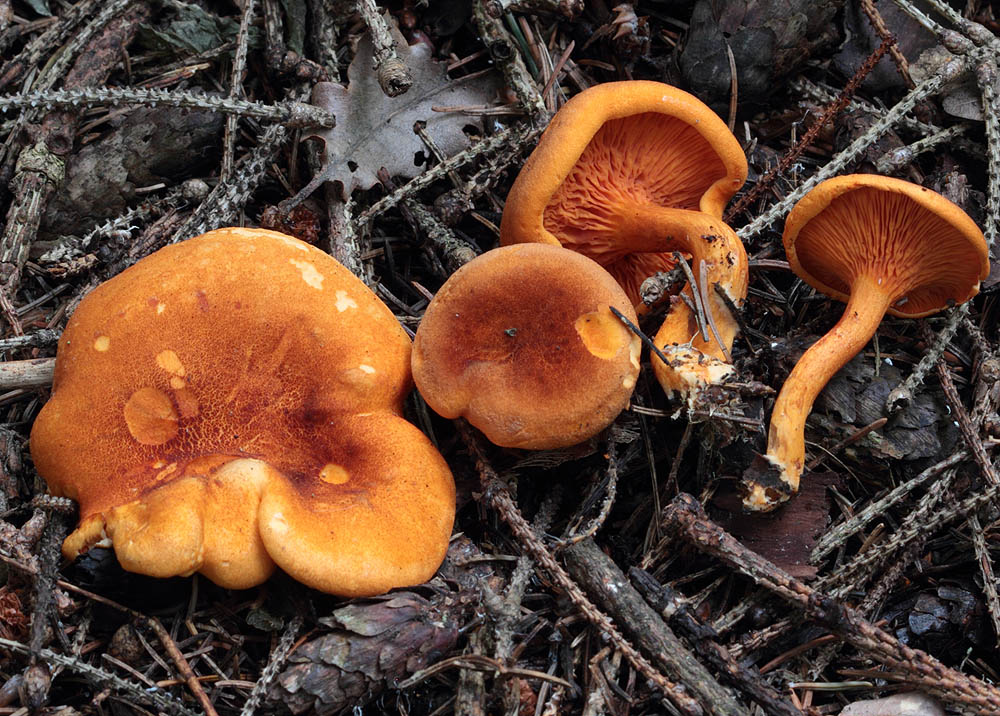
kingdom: Fungi
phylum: Basidiomycota
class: Agaricomycetes
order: Boletales
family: Hygrophoropsidaceae
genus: Hygrophoropsis
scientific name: Hygrophoropsis rufa
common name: brunfiltet orangekantarel
